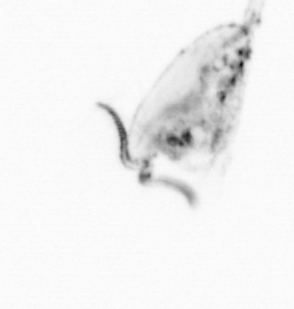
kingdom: Animalia
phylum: Arthropoda
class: Copepoda
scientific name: Copepoda
